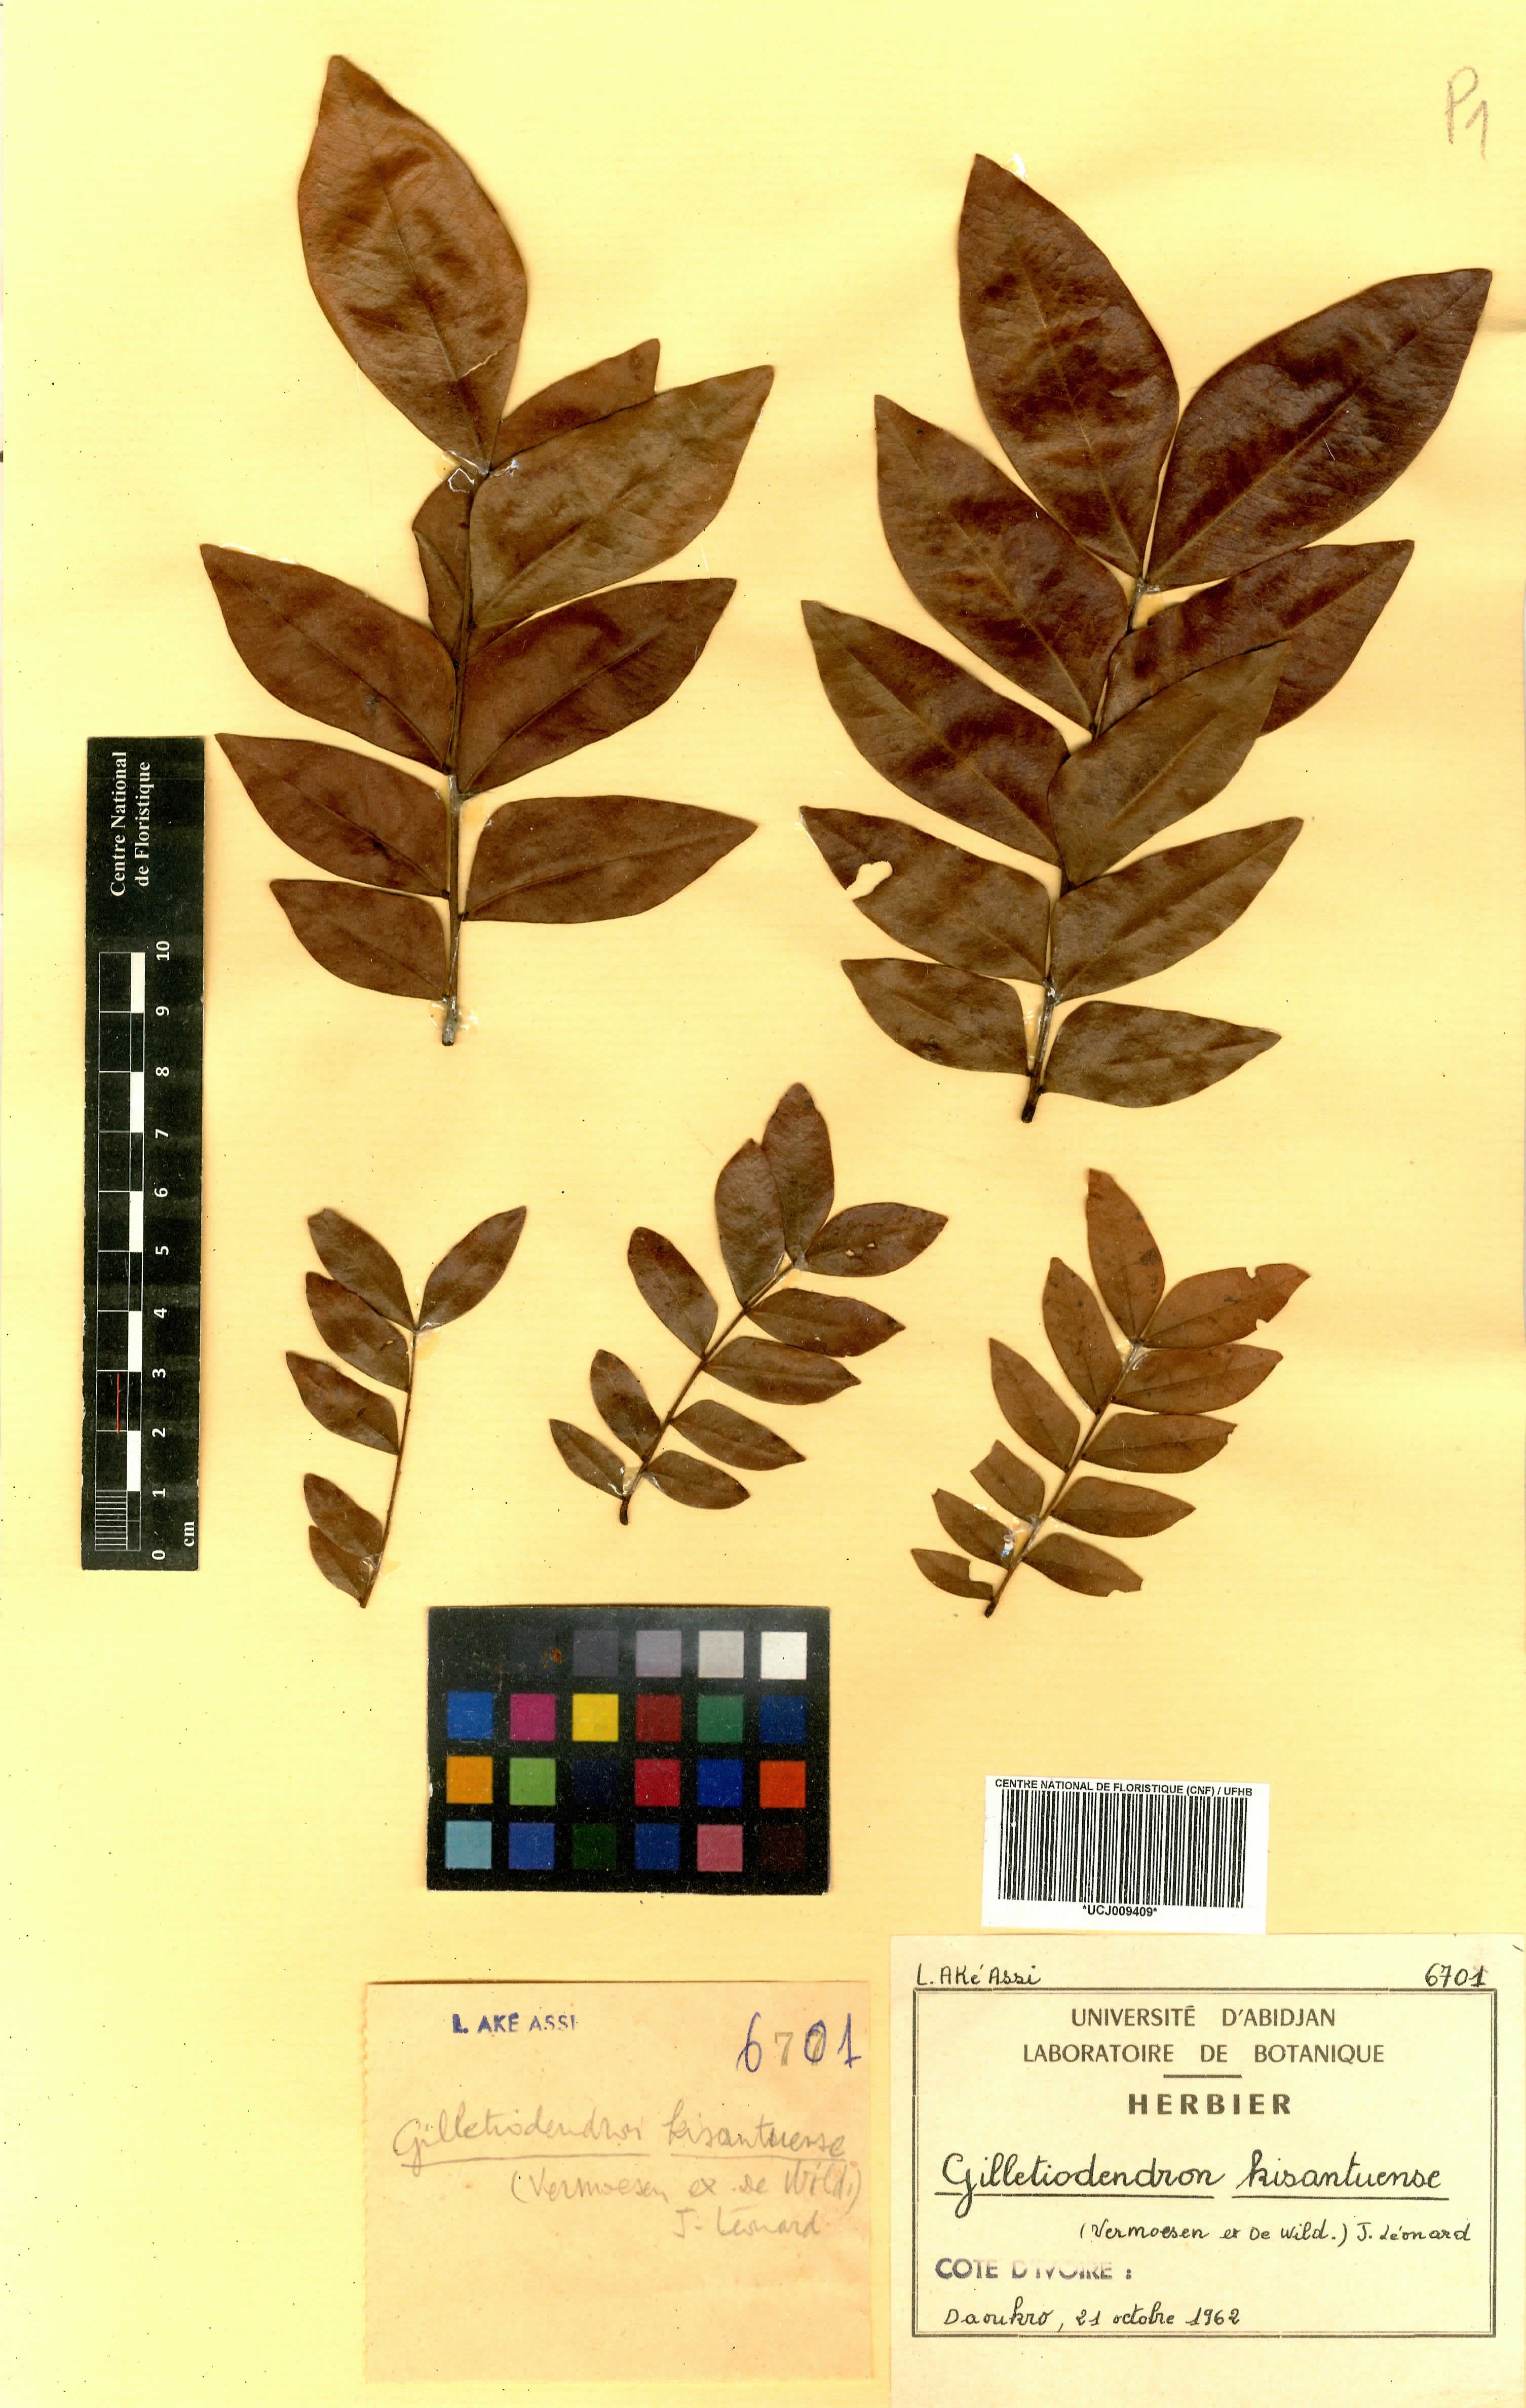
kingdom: Plantae
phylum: Tracheophyta
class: Magnoliopsida
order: Fabales
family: Fabaceae
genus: Gilletiodendron
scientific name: Gilletiodendron kisantuense
